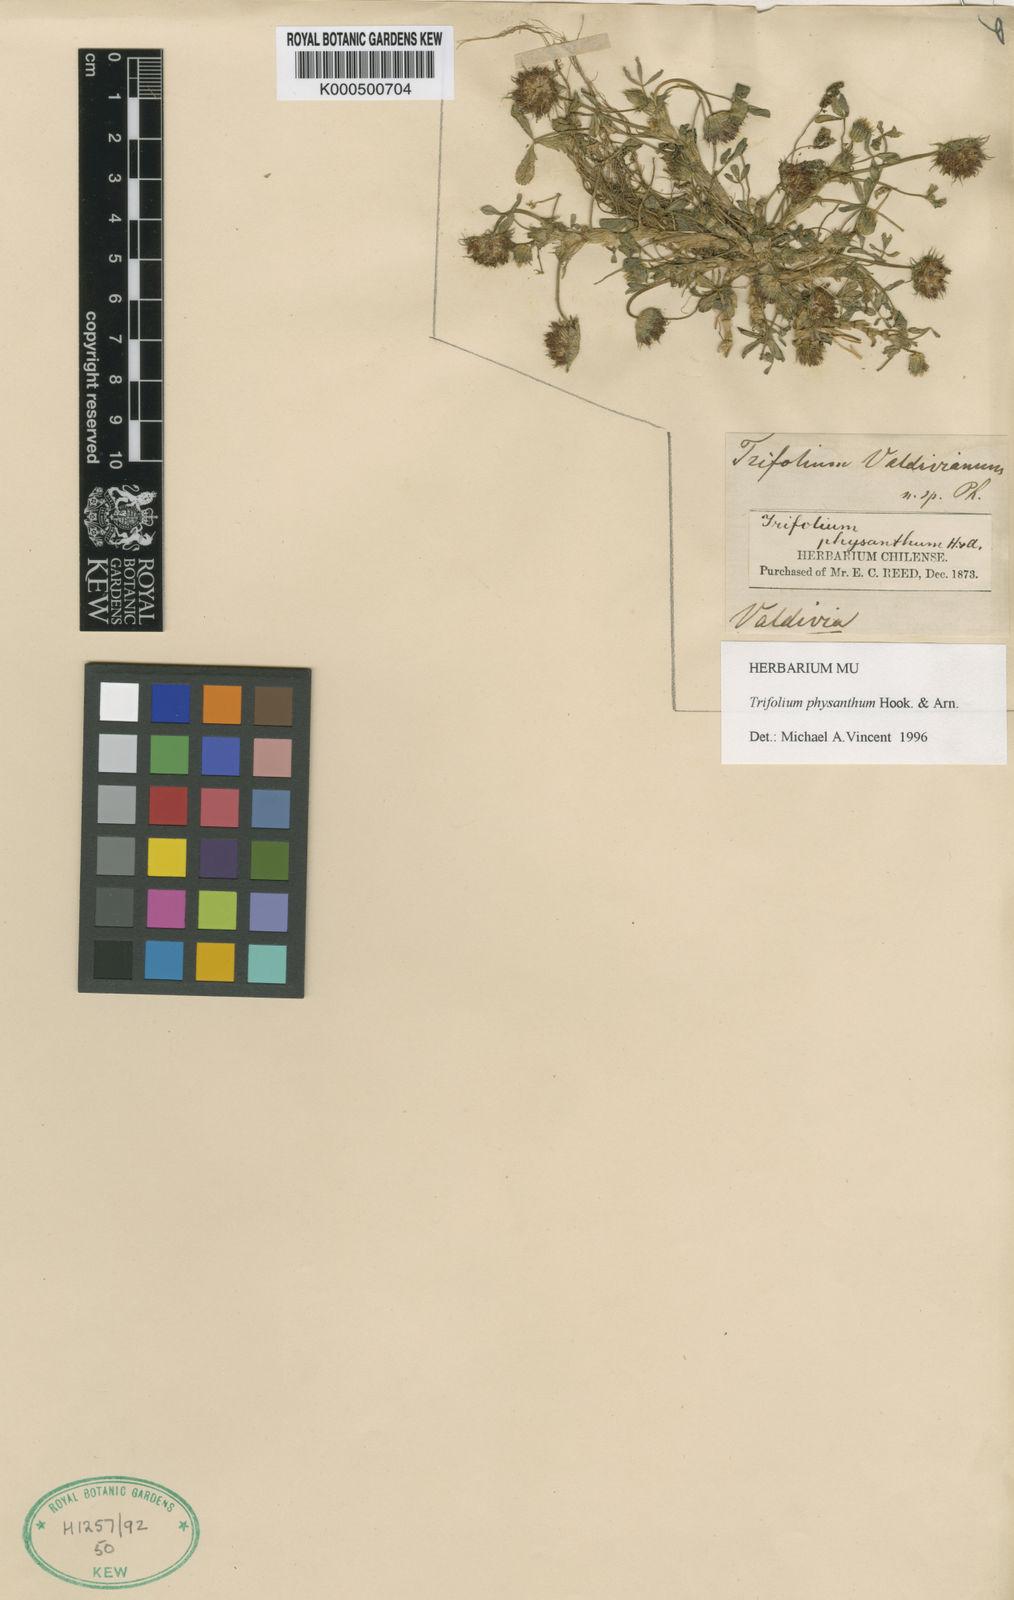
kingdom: Plantae
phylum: Tracheophyta
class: Magnoliopsida
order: Fabales
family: Fabaceae
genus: Trifolium
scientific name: Trifolium physanthum
